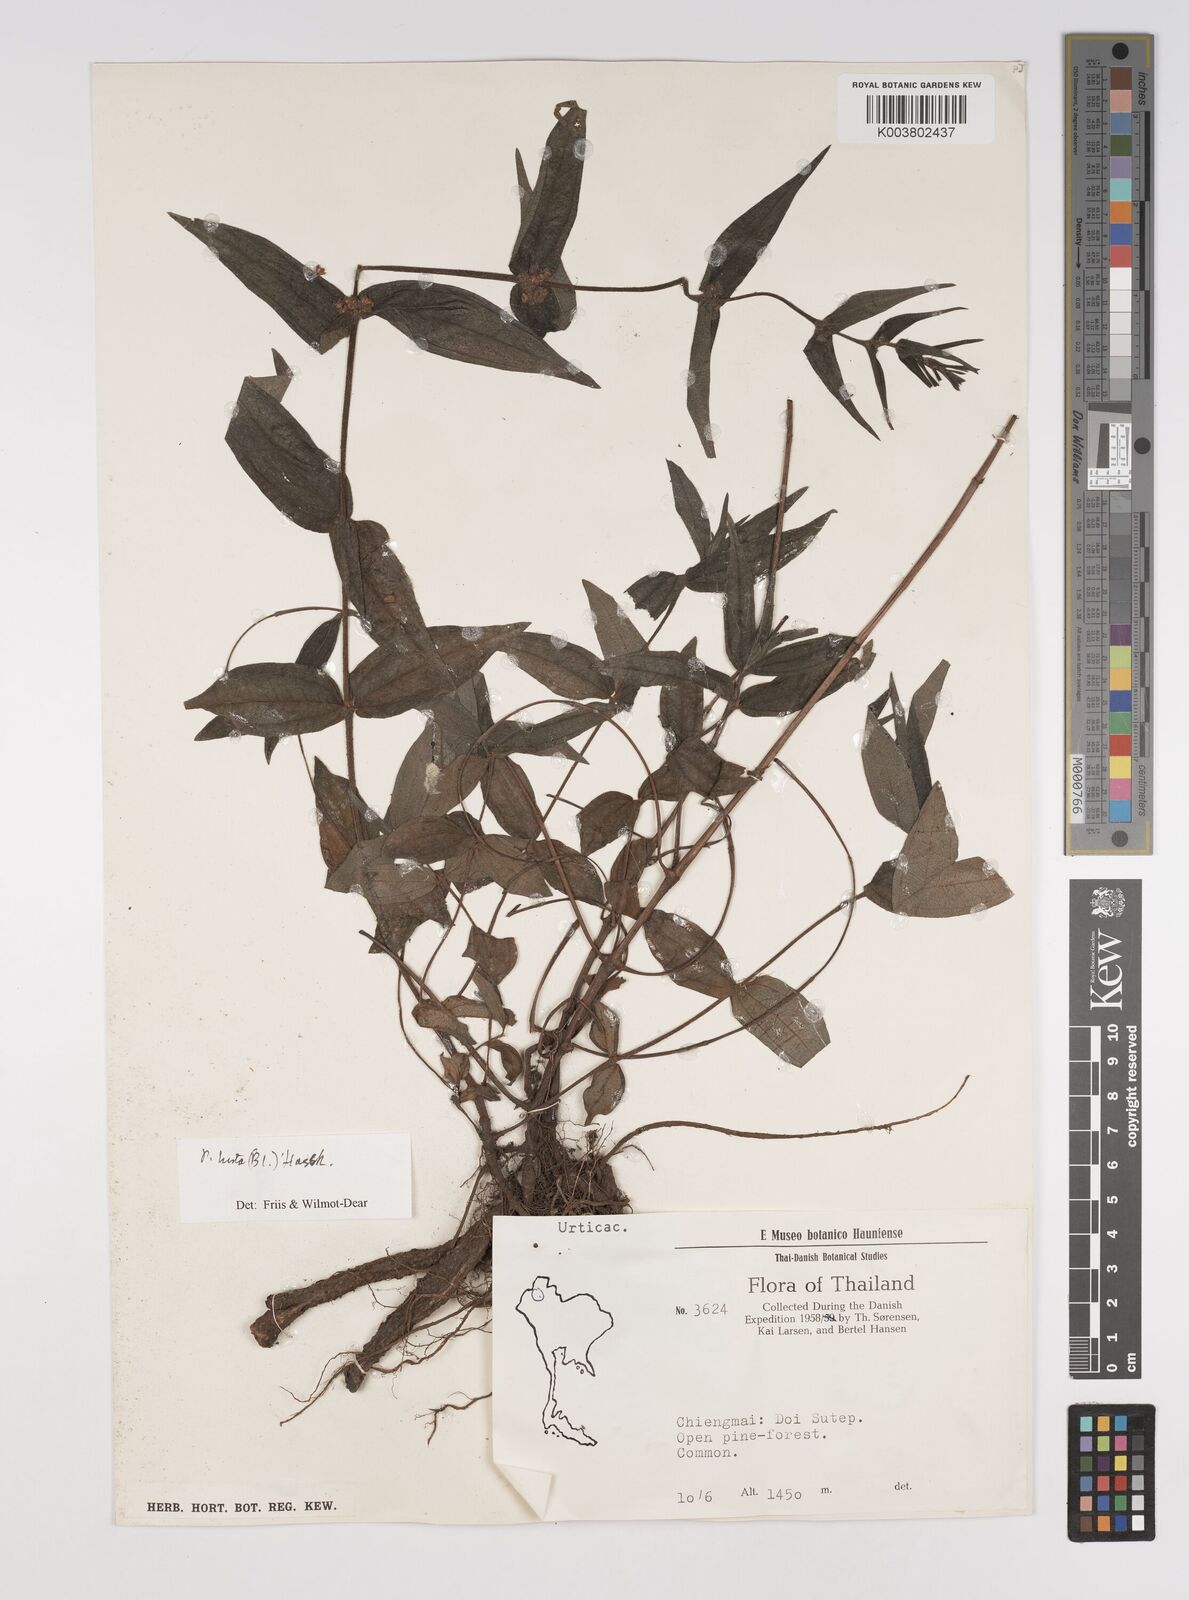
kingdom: Plantae
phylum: Tracheophyta
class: Magnoliopsida
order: Rosales
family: Urticaceae
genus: Gonostegia
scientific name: Gonostegia triandra
